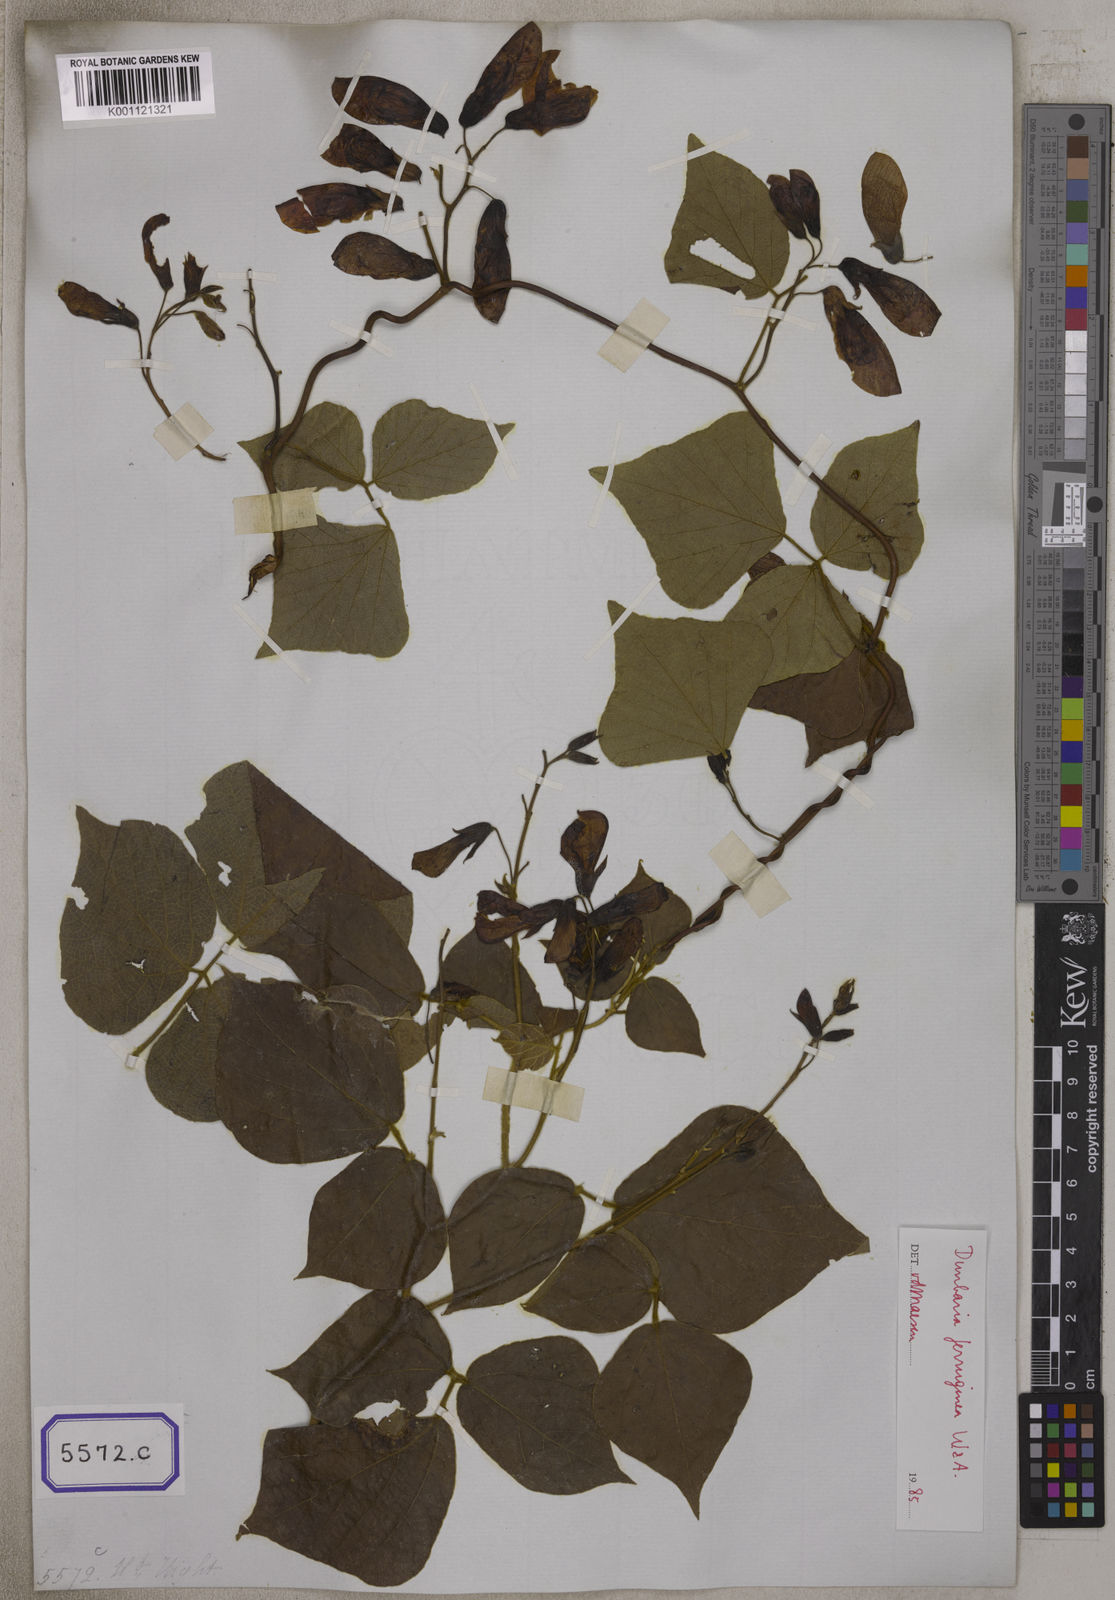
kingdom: Plantae
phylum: Tracheophyta
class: Magnoliopsida
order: Fabales
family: Fabaceae
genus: Dunbaria
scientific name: Dunbaria ferruginea
